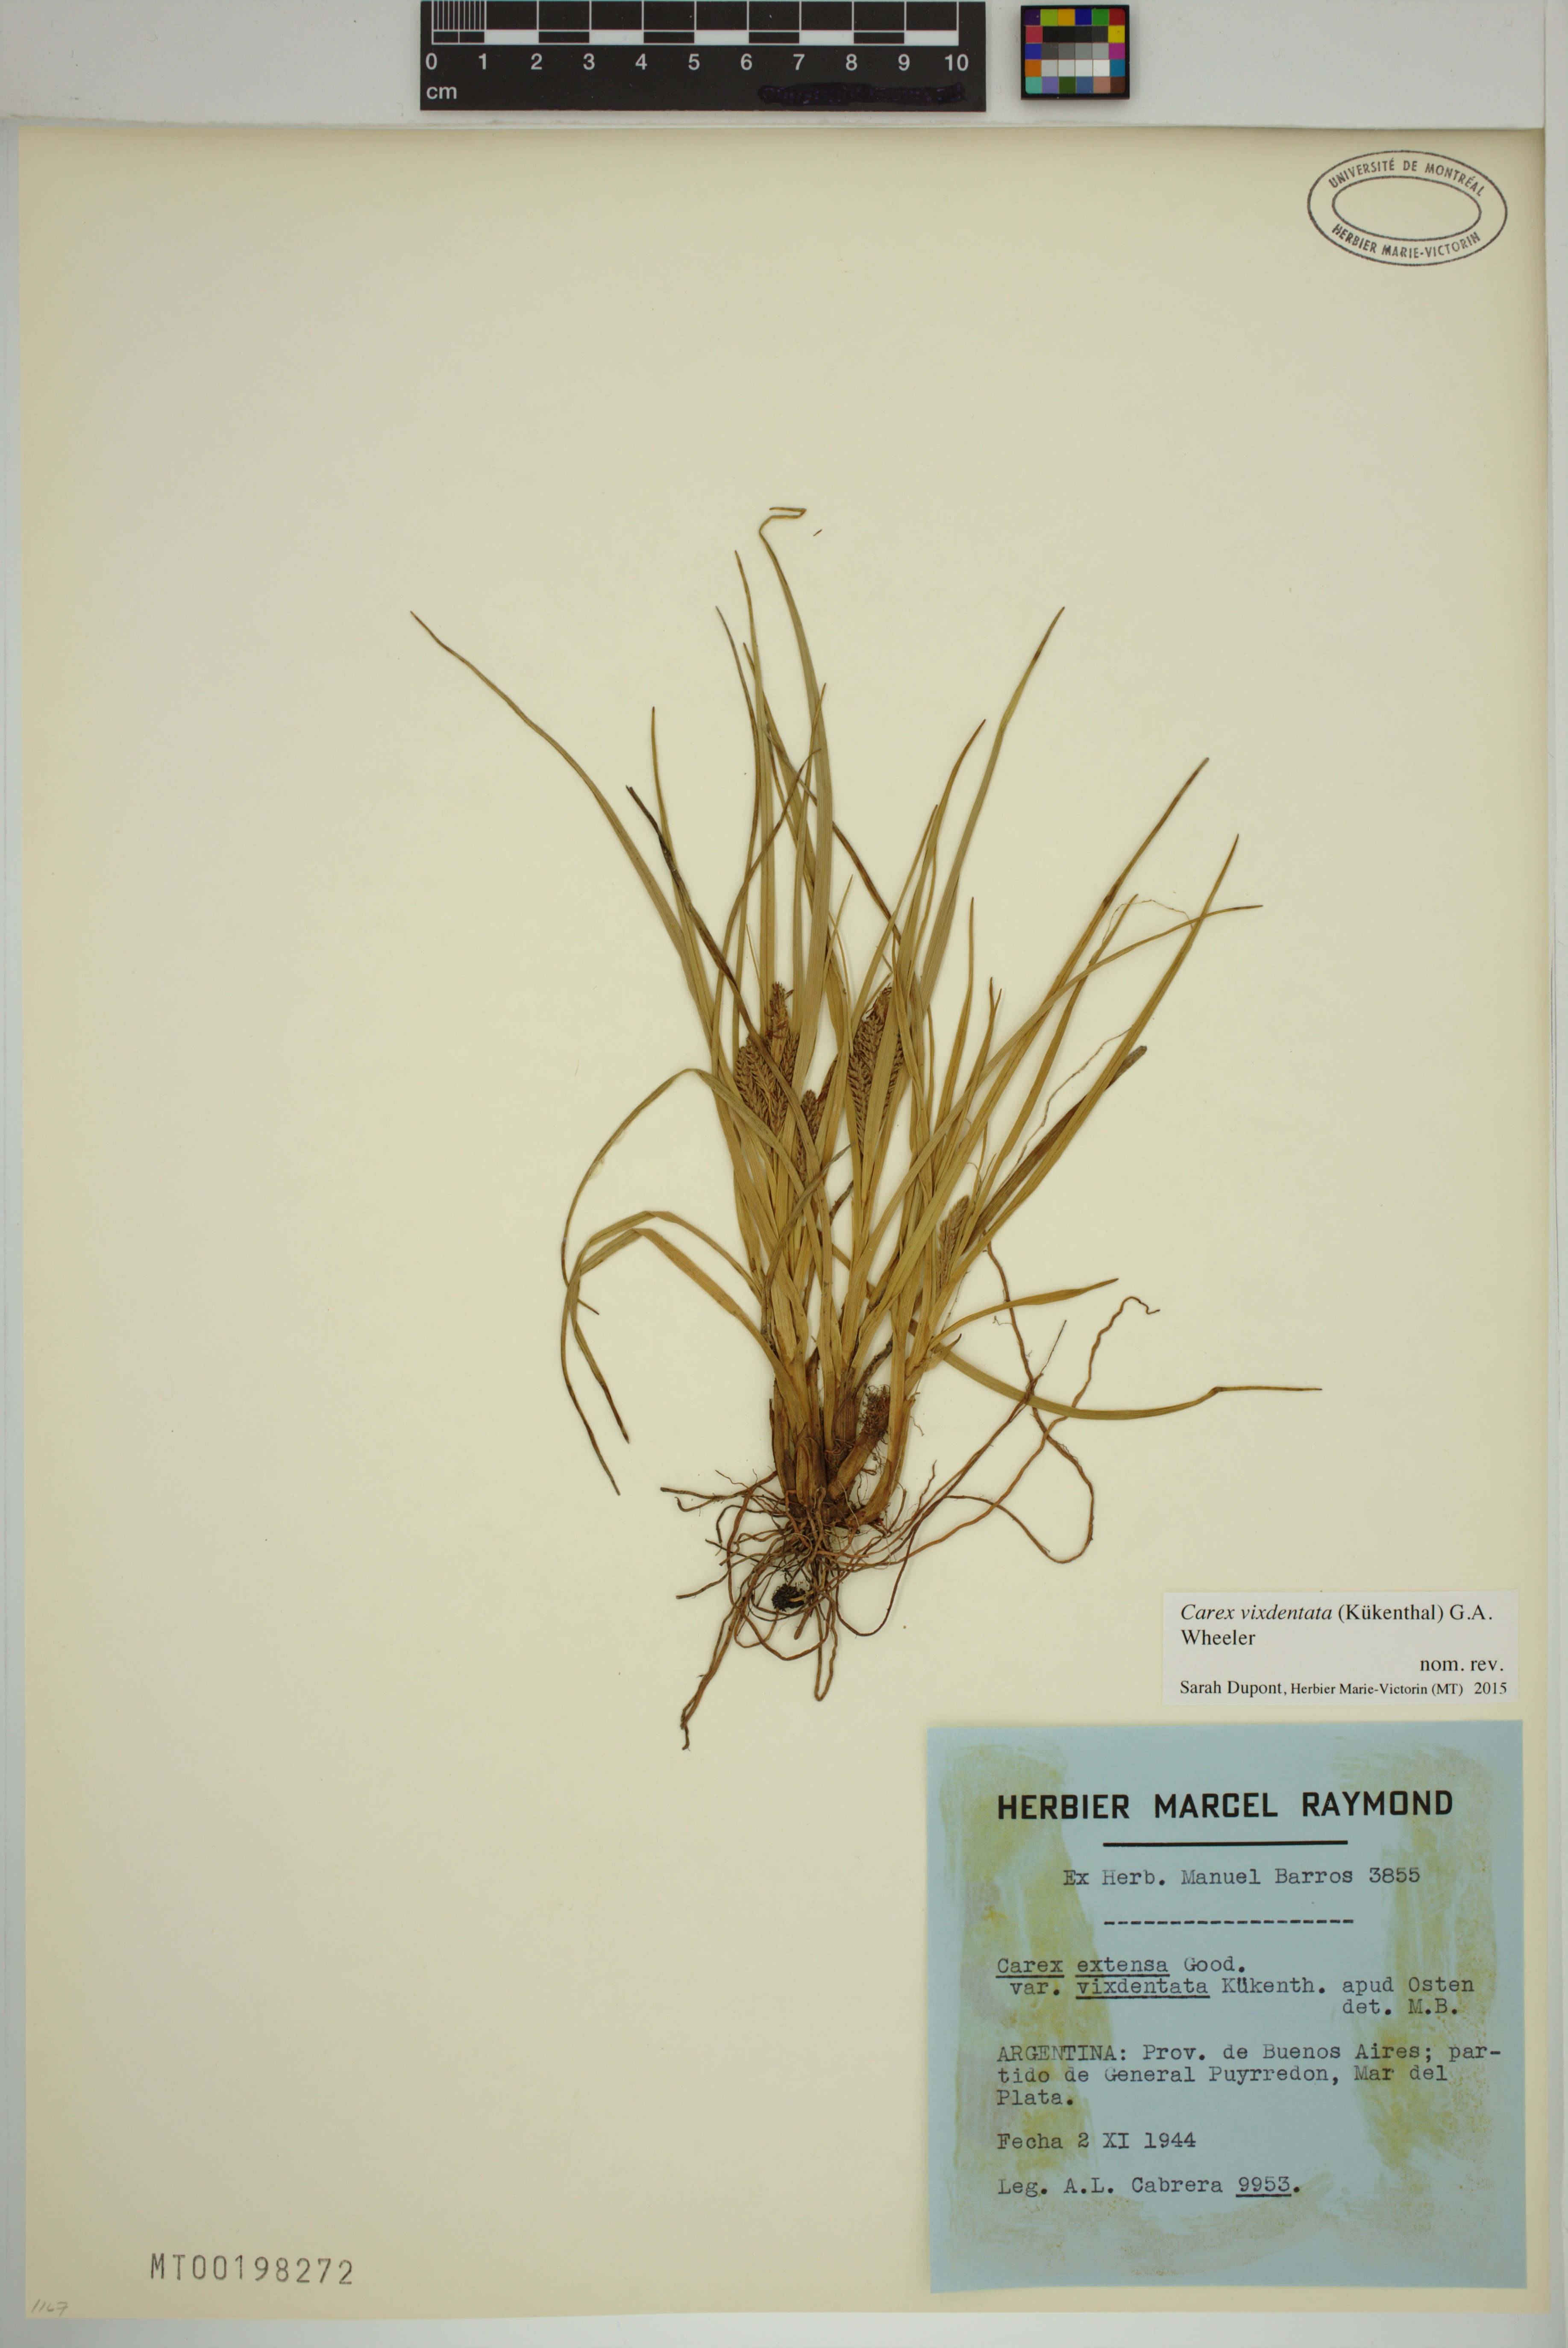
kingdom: Plantae
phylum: Tracheophyta
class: Liliopsida
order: Poales
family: Cyperaceae
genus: Carex
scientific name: Carex vixdentata
